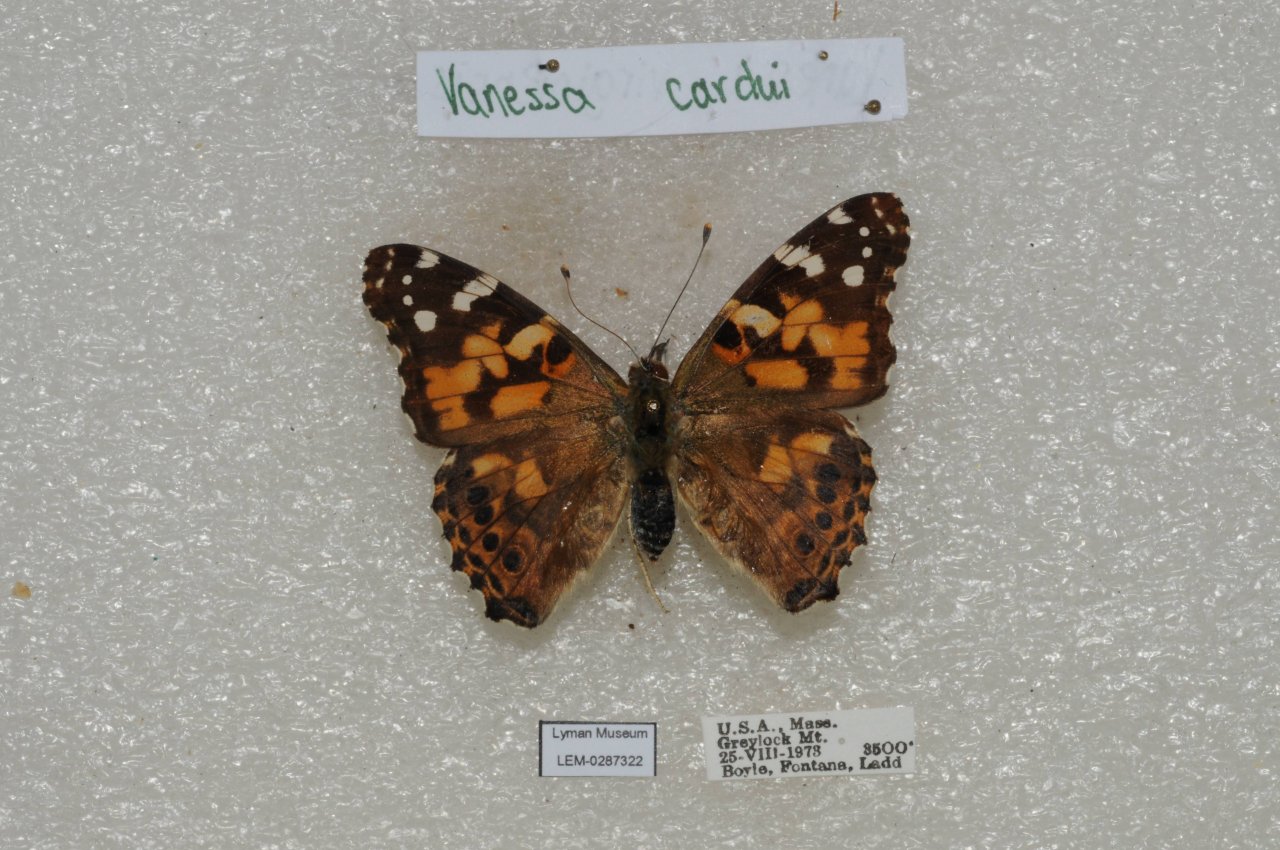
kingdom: Animalia
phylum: Arthropoda
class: Insecta
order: Lepidoptera
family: Nymphalidae
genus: Vanessa
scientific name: Vanessa cardui
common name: Painted Lady
